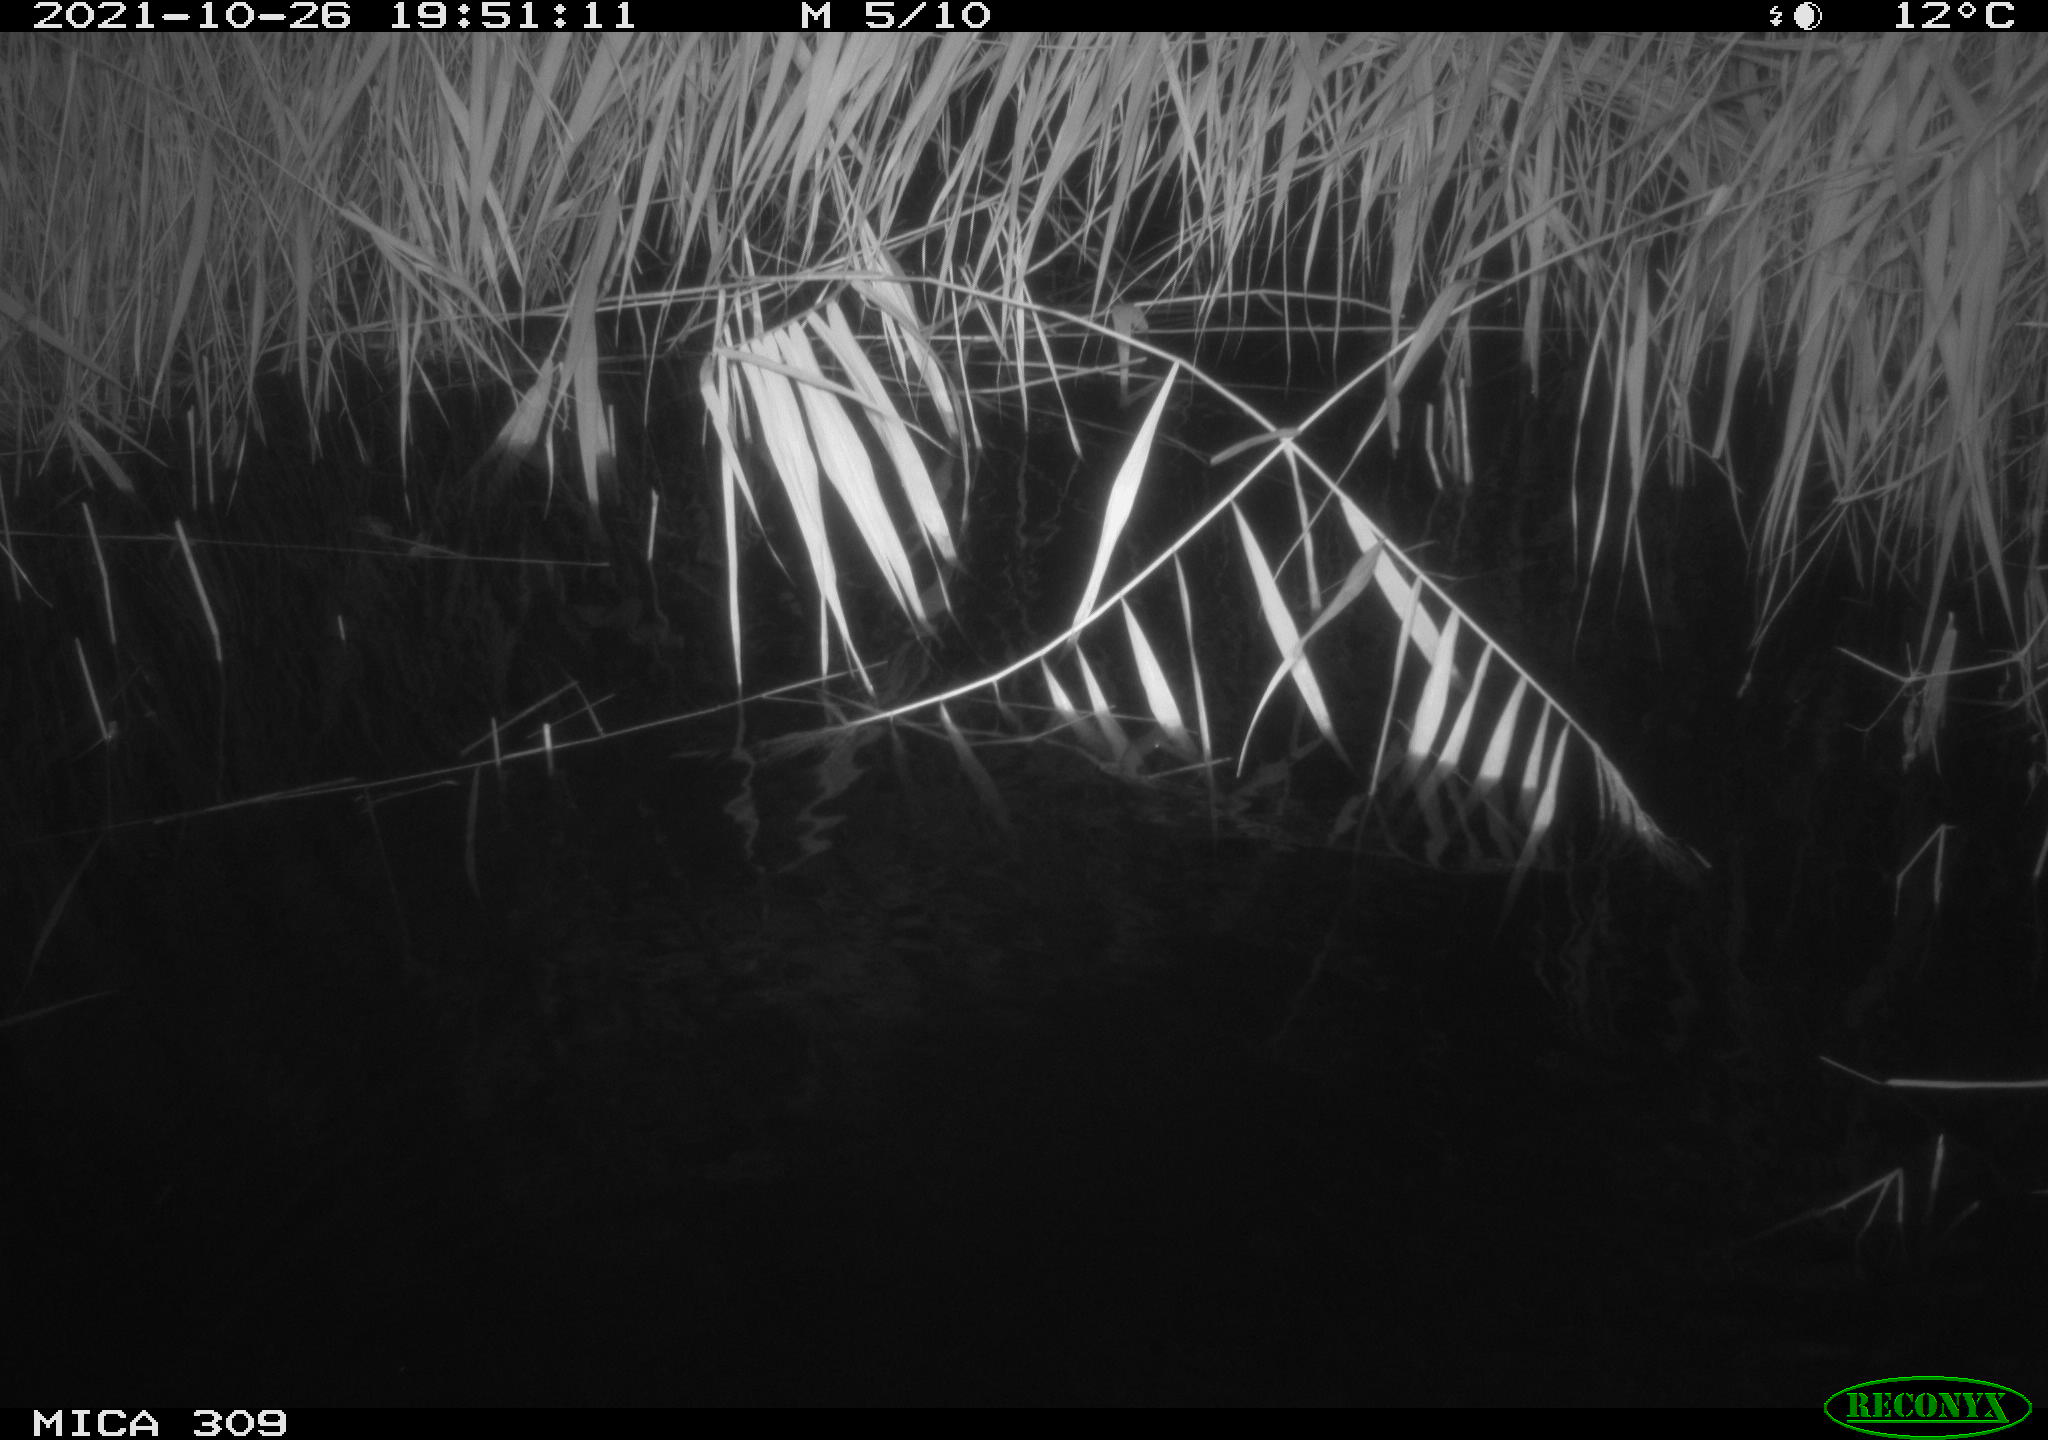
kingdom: Animalia
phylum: Chordata
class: Mammalia
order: Rodentia
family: Muridae
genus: Rattus
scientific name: Rattus norvegicus
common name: Brown rat
